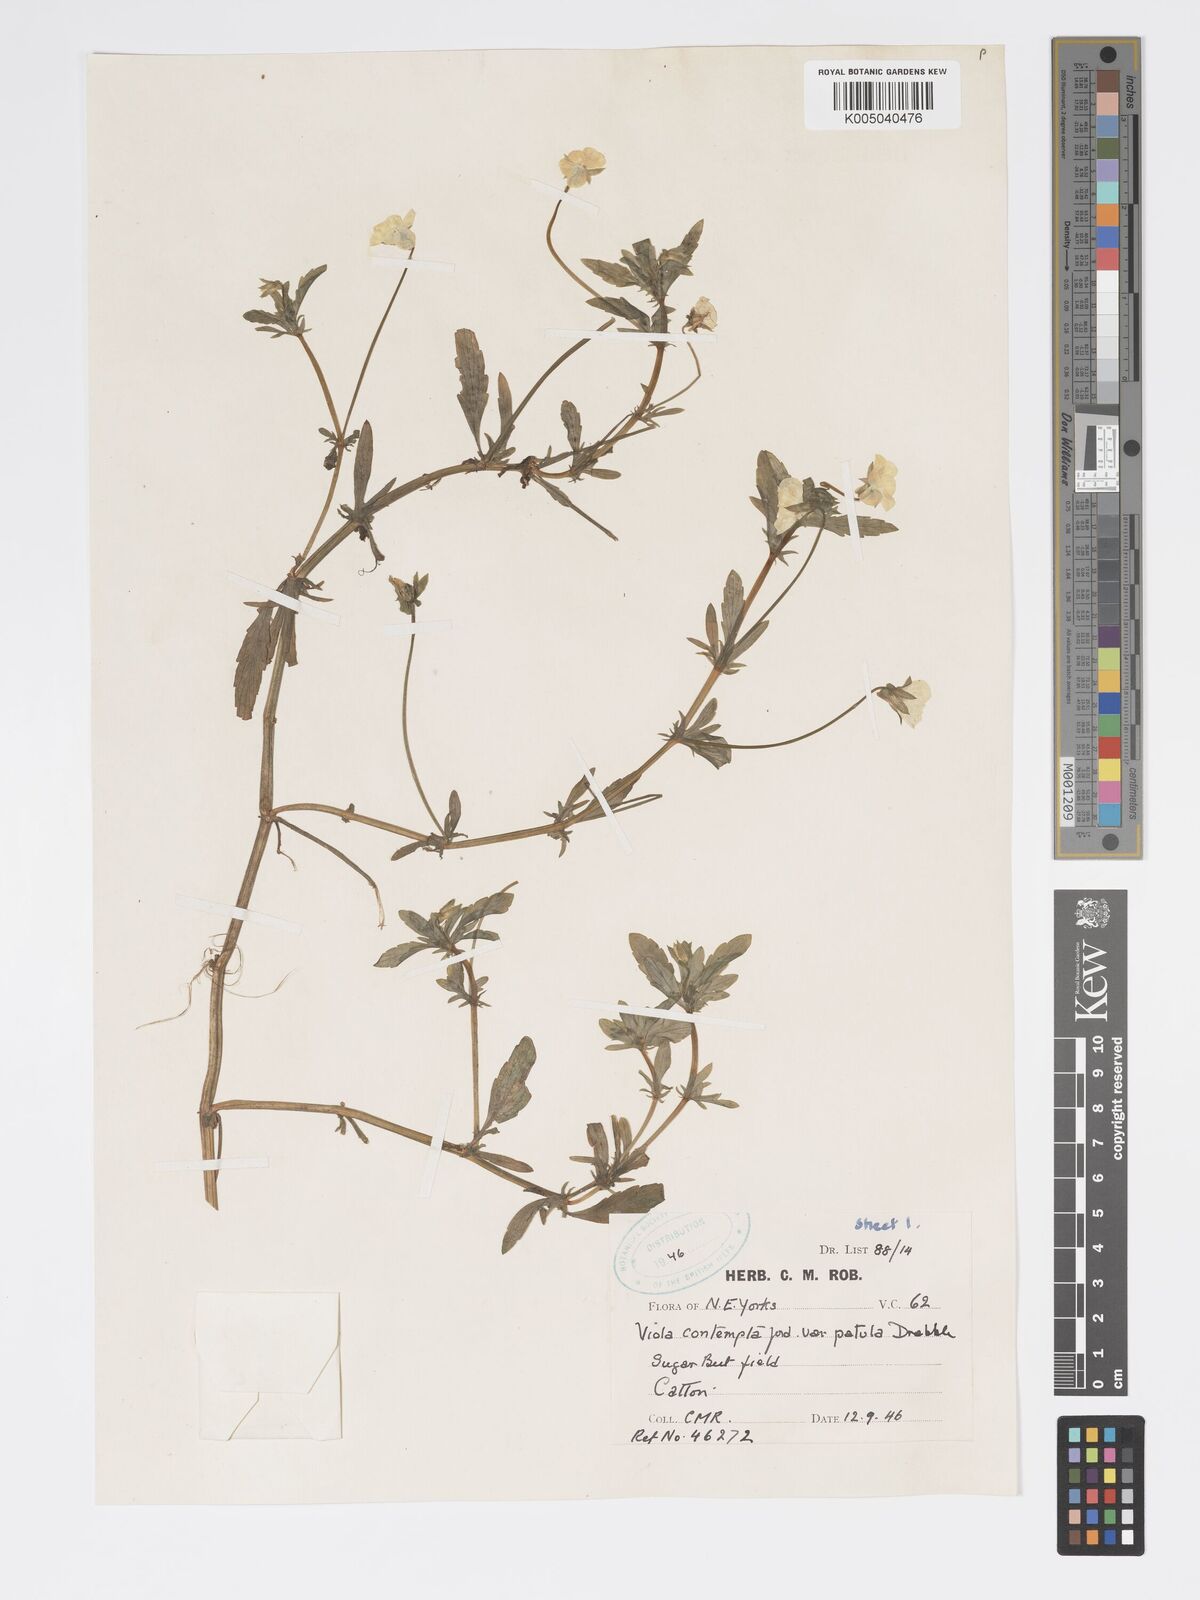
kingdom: Plantae
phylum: Tracheophyta
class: Magnoliopsida
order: Malpighiales
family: Violaceae
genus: Viola
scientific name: Viola arvensis
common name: Field pansy
